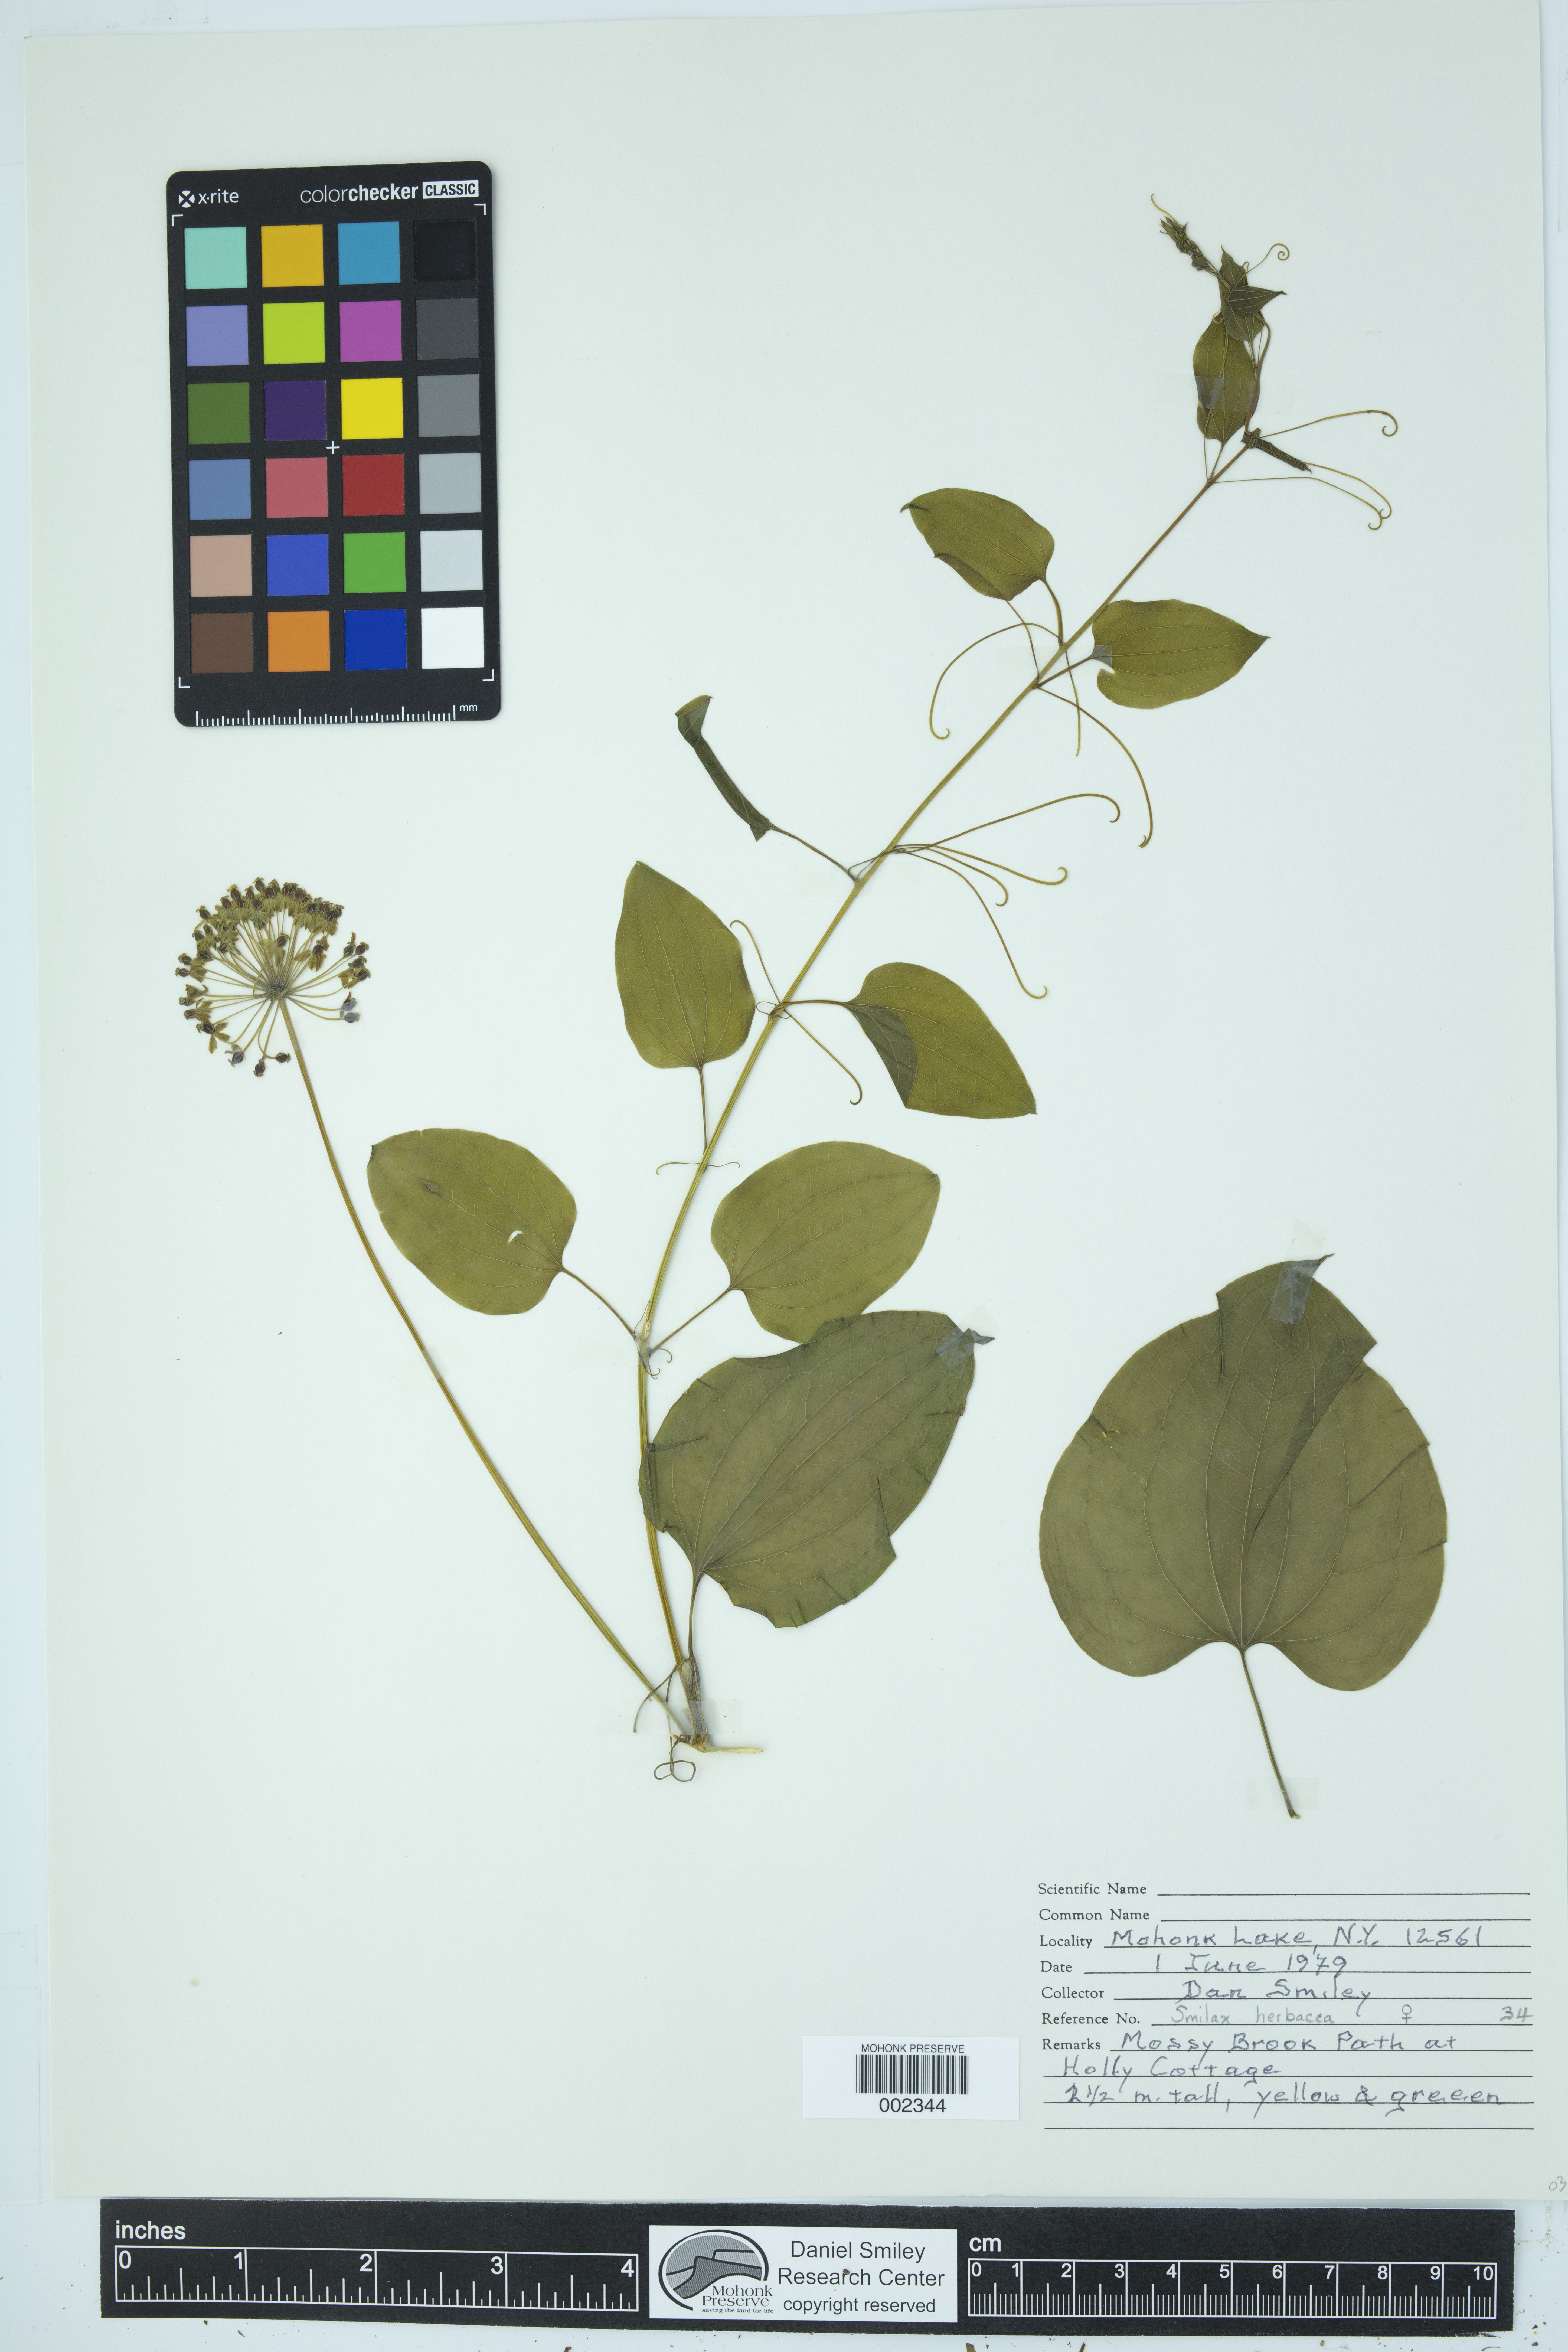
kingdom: Plantae
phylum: Tracheophyta
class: Liliopsida
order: Liliales
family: Smilacaceae
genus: Smilax
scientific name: Smilax herbacea
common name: Jacob's-ladder
